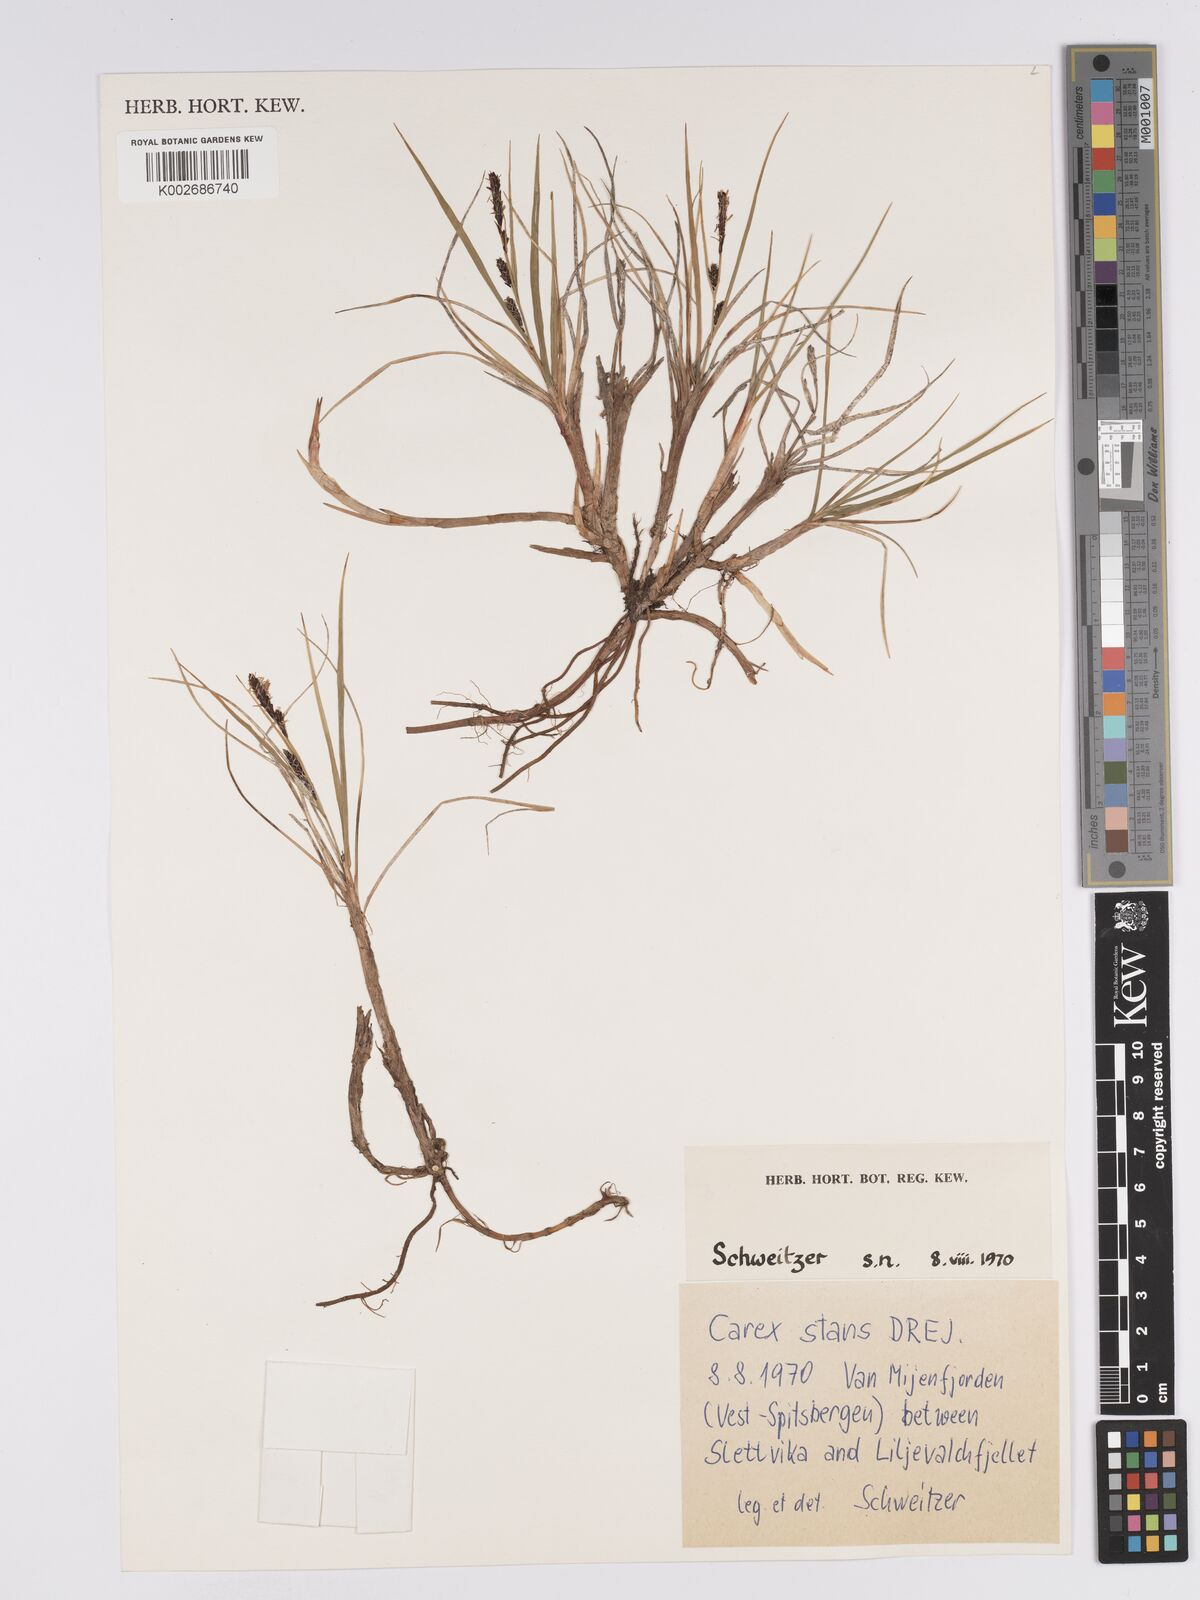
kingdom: Plantae
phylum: Tracheophyta
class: Liliopsida
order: Poales
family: Cyperaceae
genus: Carex
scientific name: Carex aquatilis
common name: Water sedge
